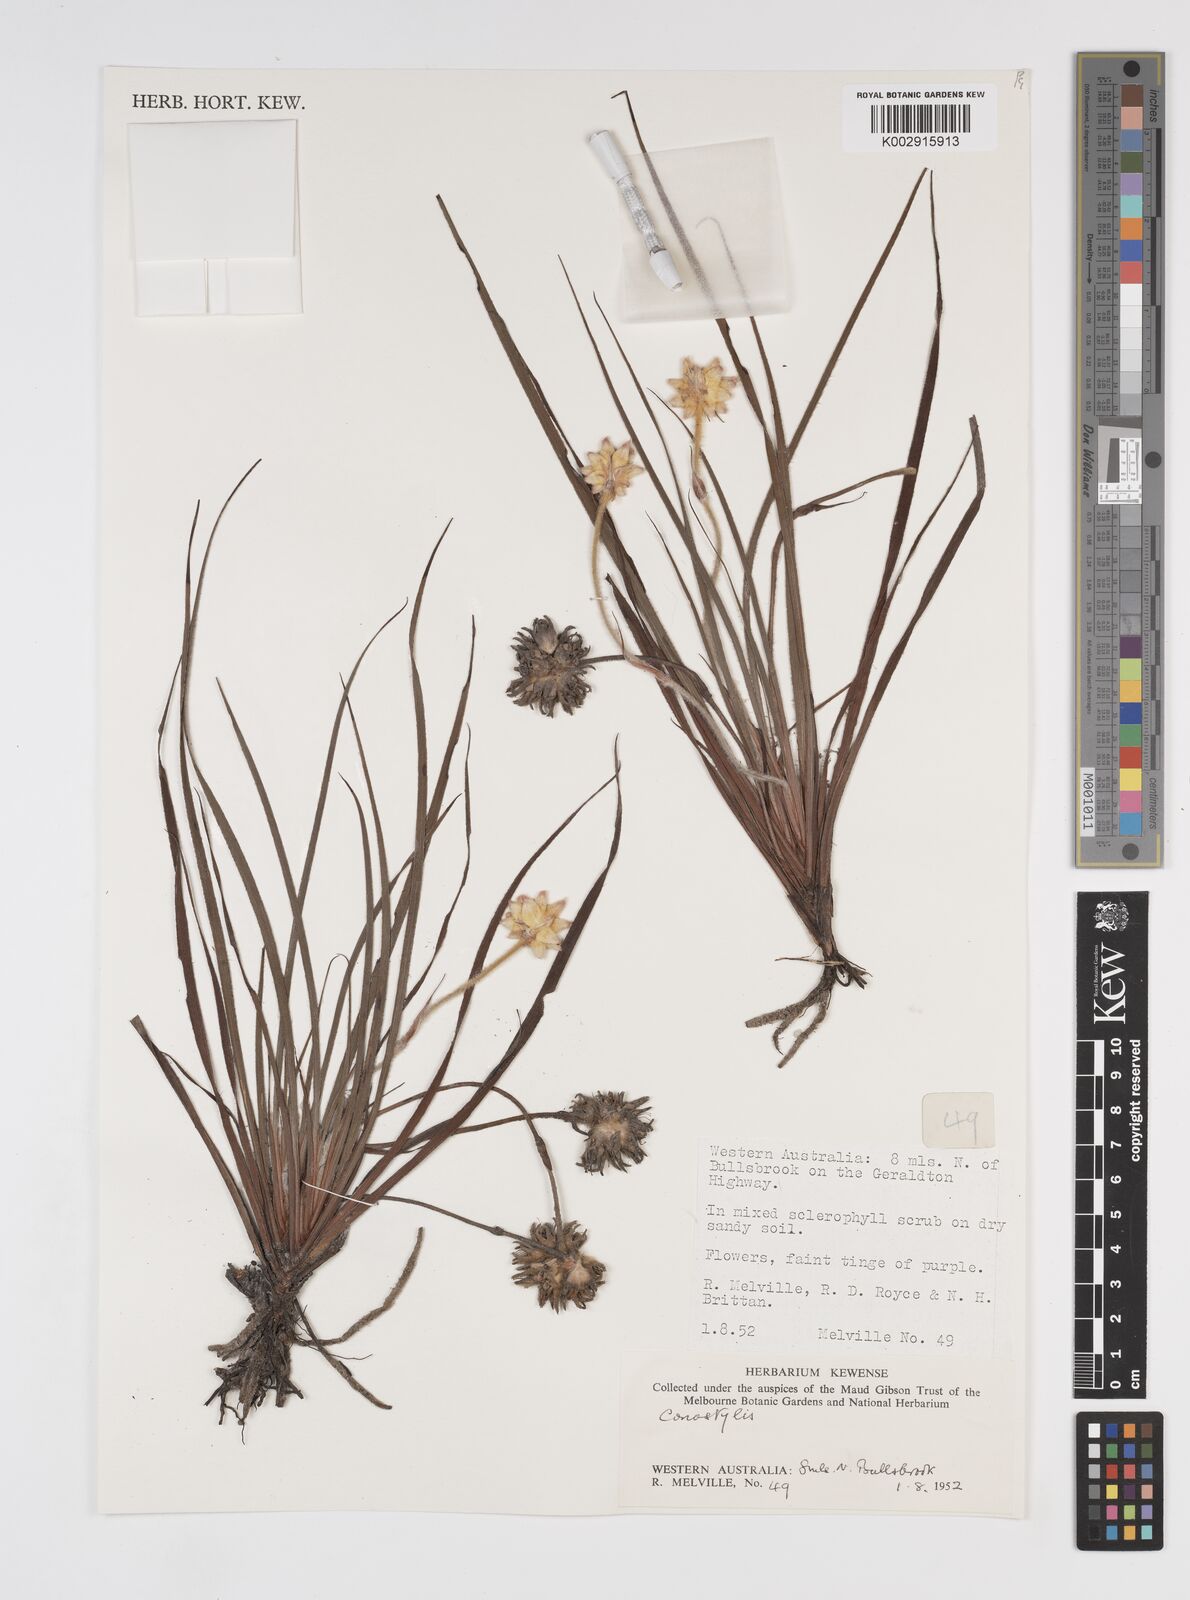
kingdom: Plantae
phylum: Tracheophyta
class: Liliopsida
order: Commelinales
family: Haemodoraceae
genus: Conostylis
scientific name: Conostylis
